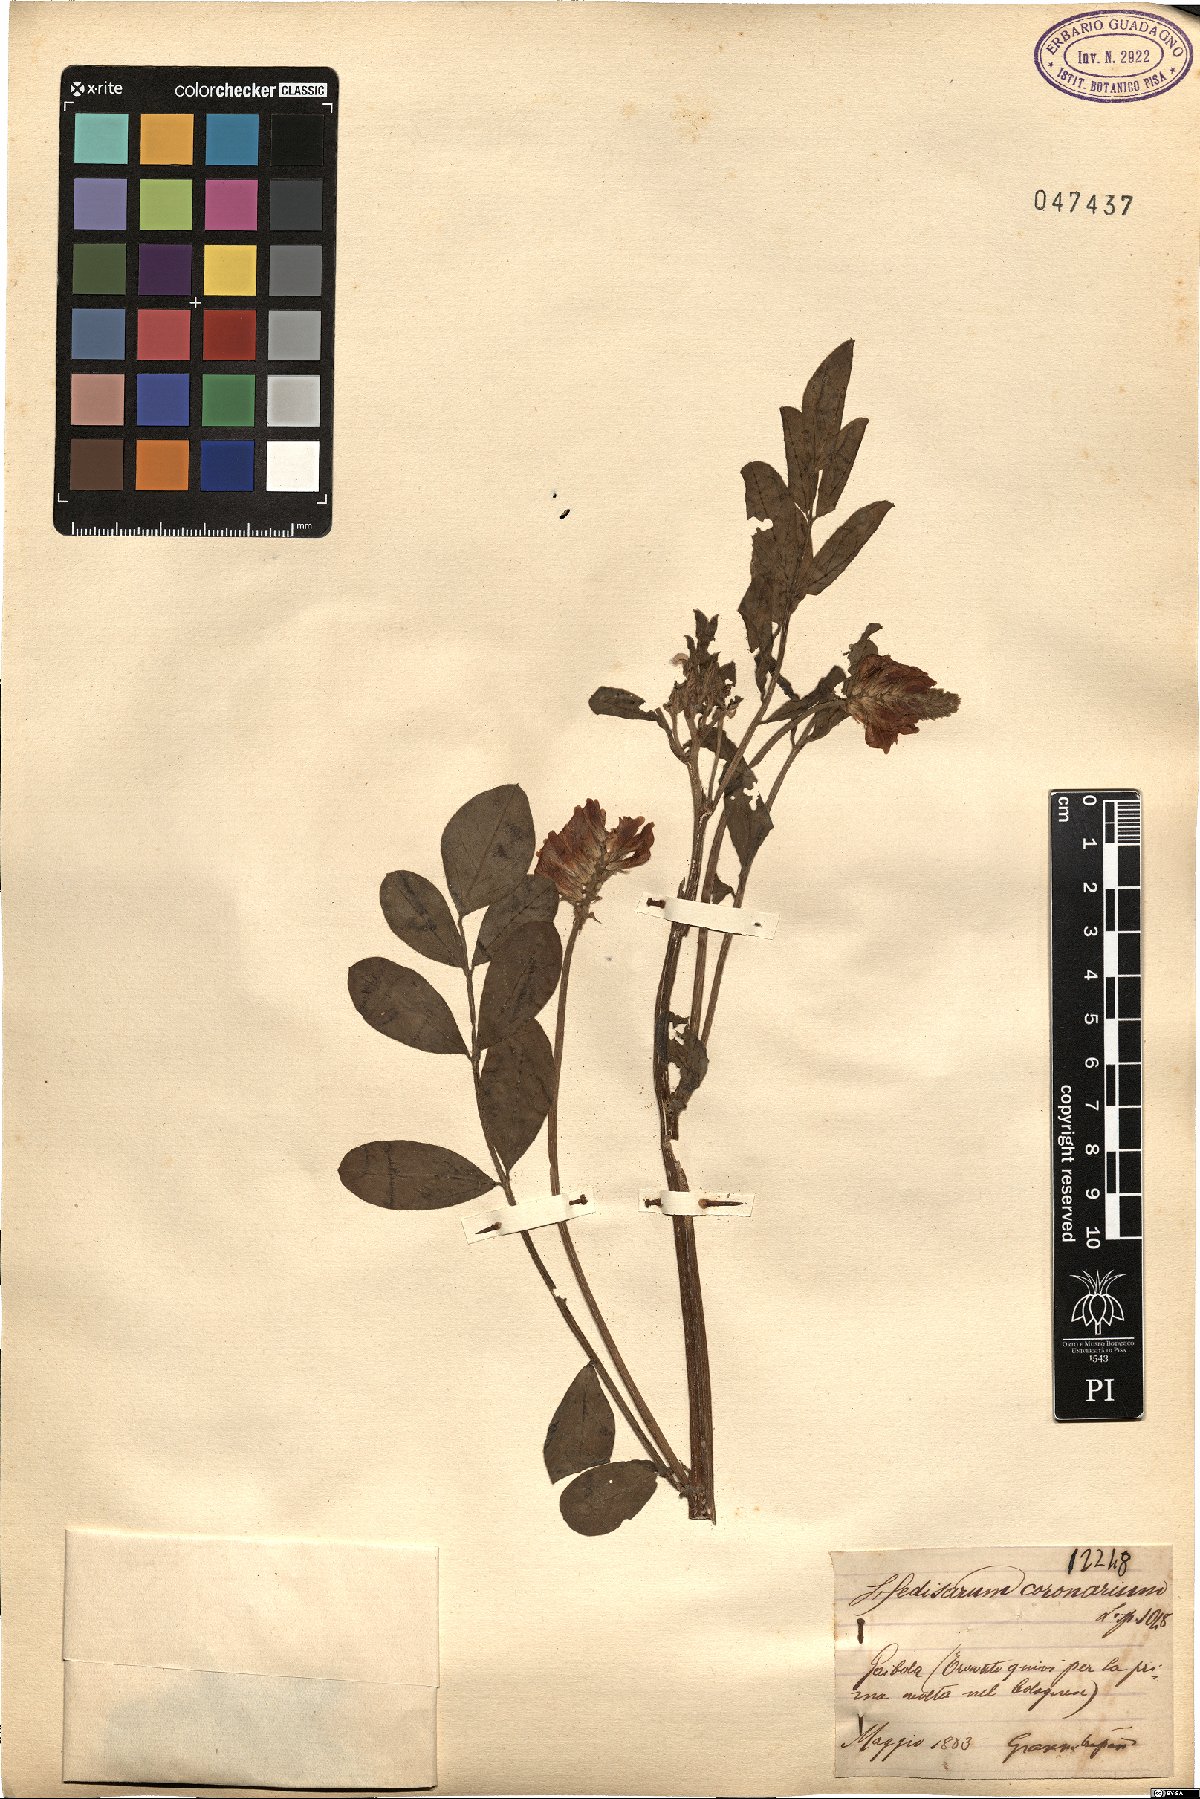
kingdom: Plantae
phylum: Tracheophyta
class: Magnoliopsida
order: Fabales
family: Fabaceae
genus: Sulla
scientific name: Sulla coronaria
